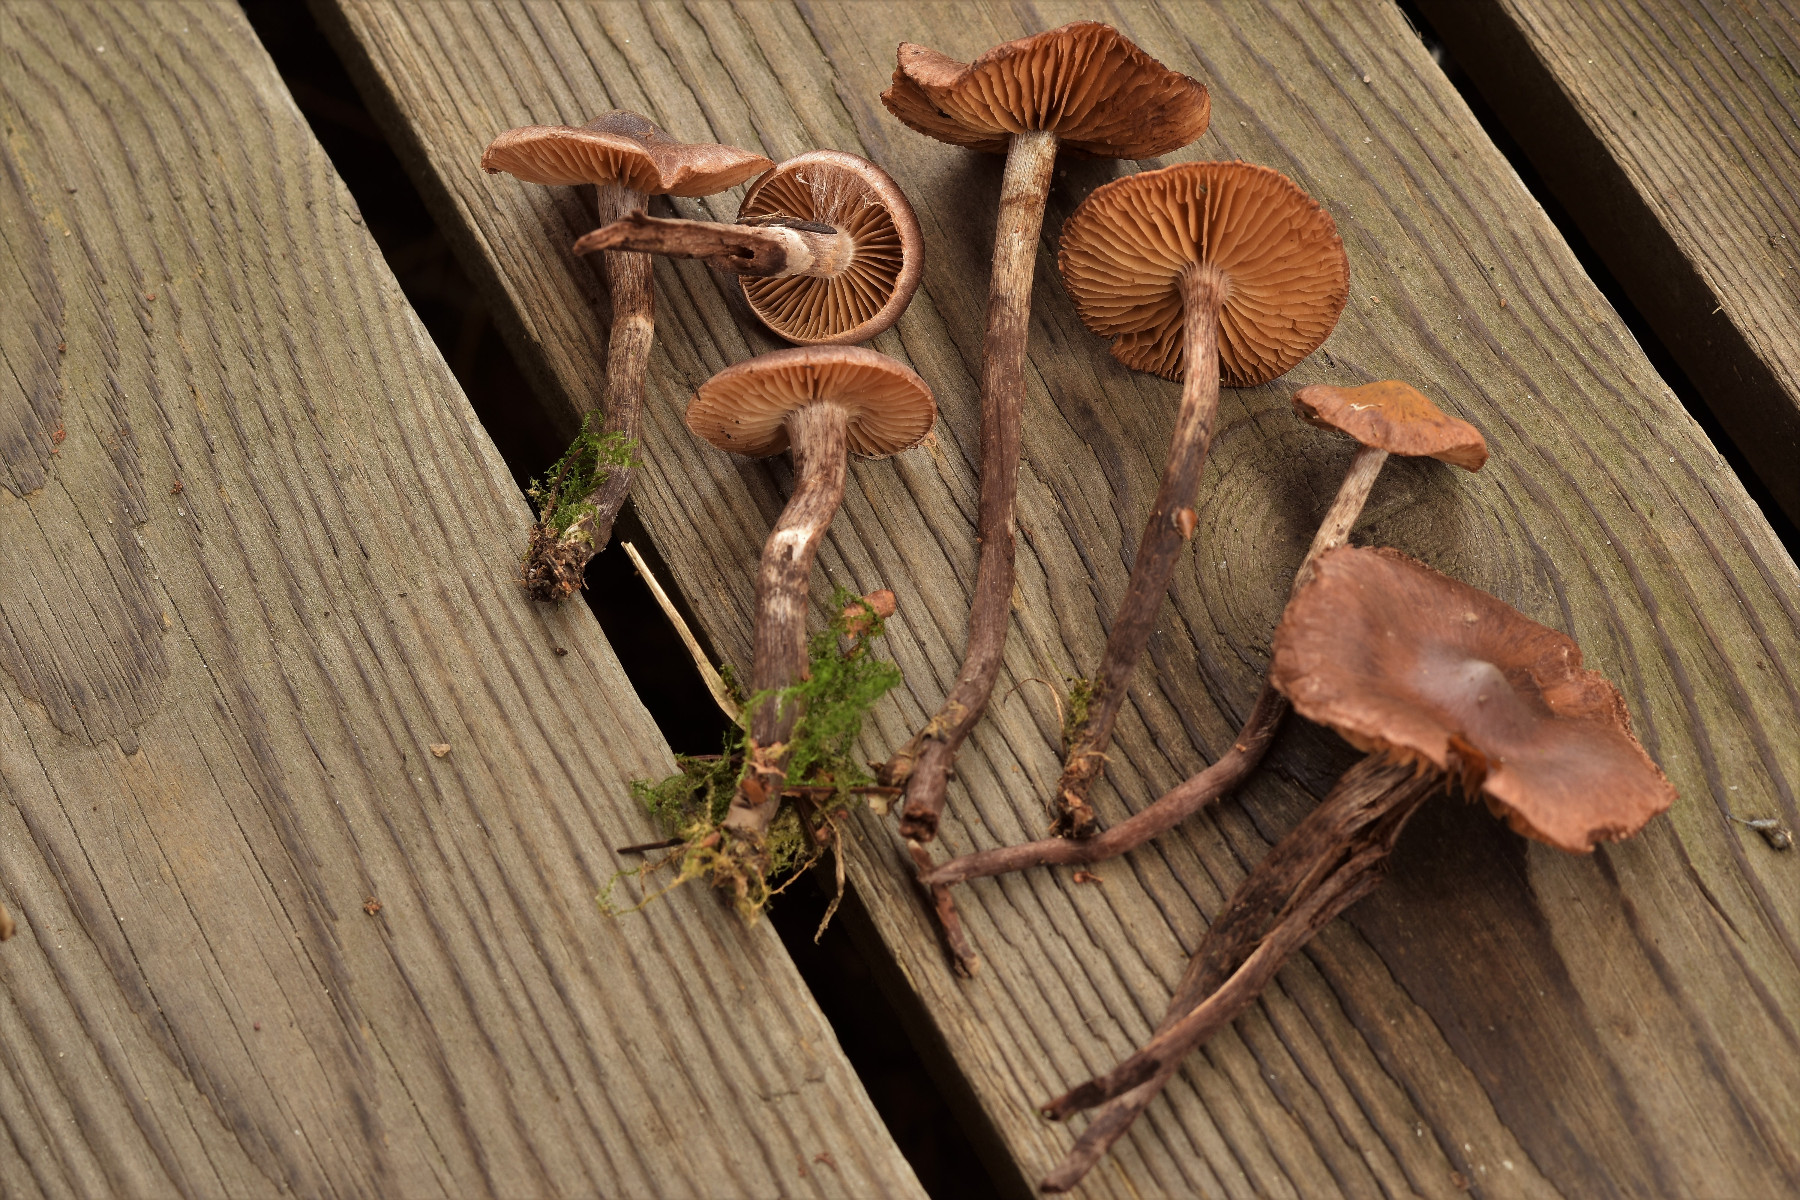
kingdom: Fungi
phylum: Basidiomycota
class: Agaricomycetes
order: Agaricales
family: Cortinariaceae
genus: Cortinarius
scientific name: Cortinarius atroalbus
